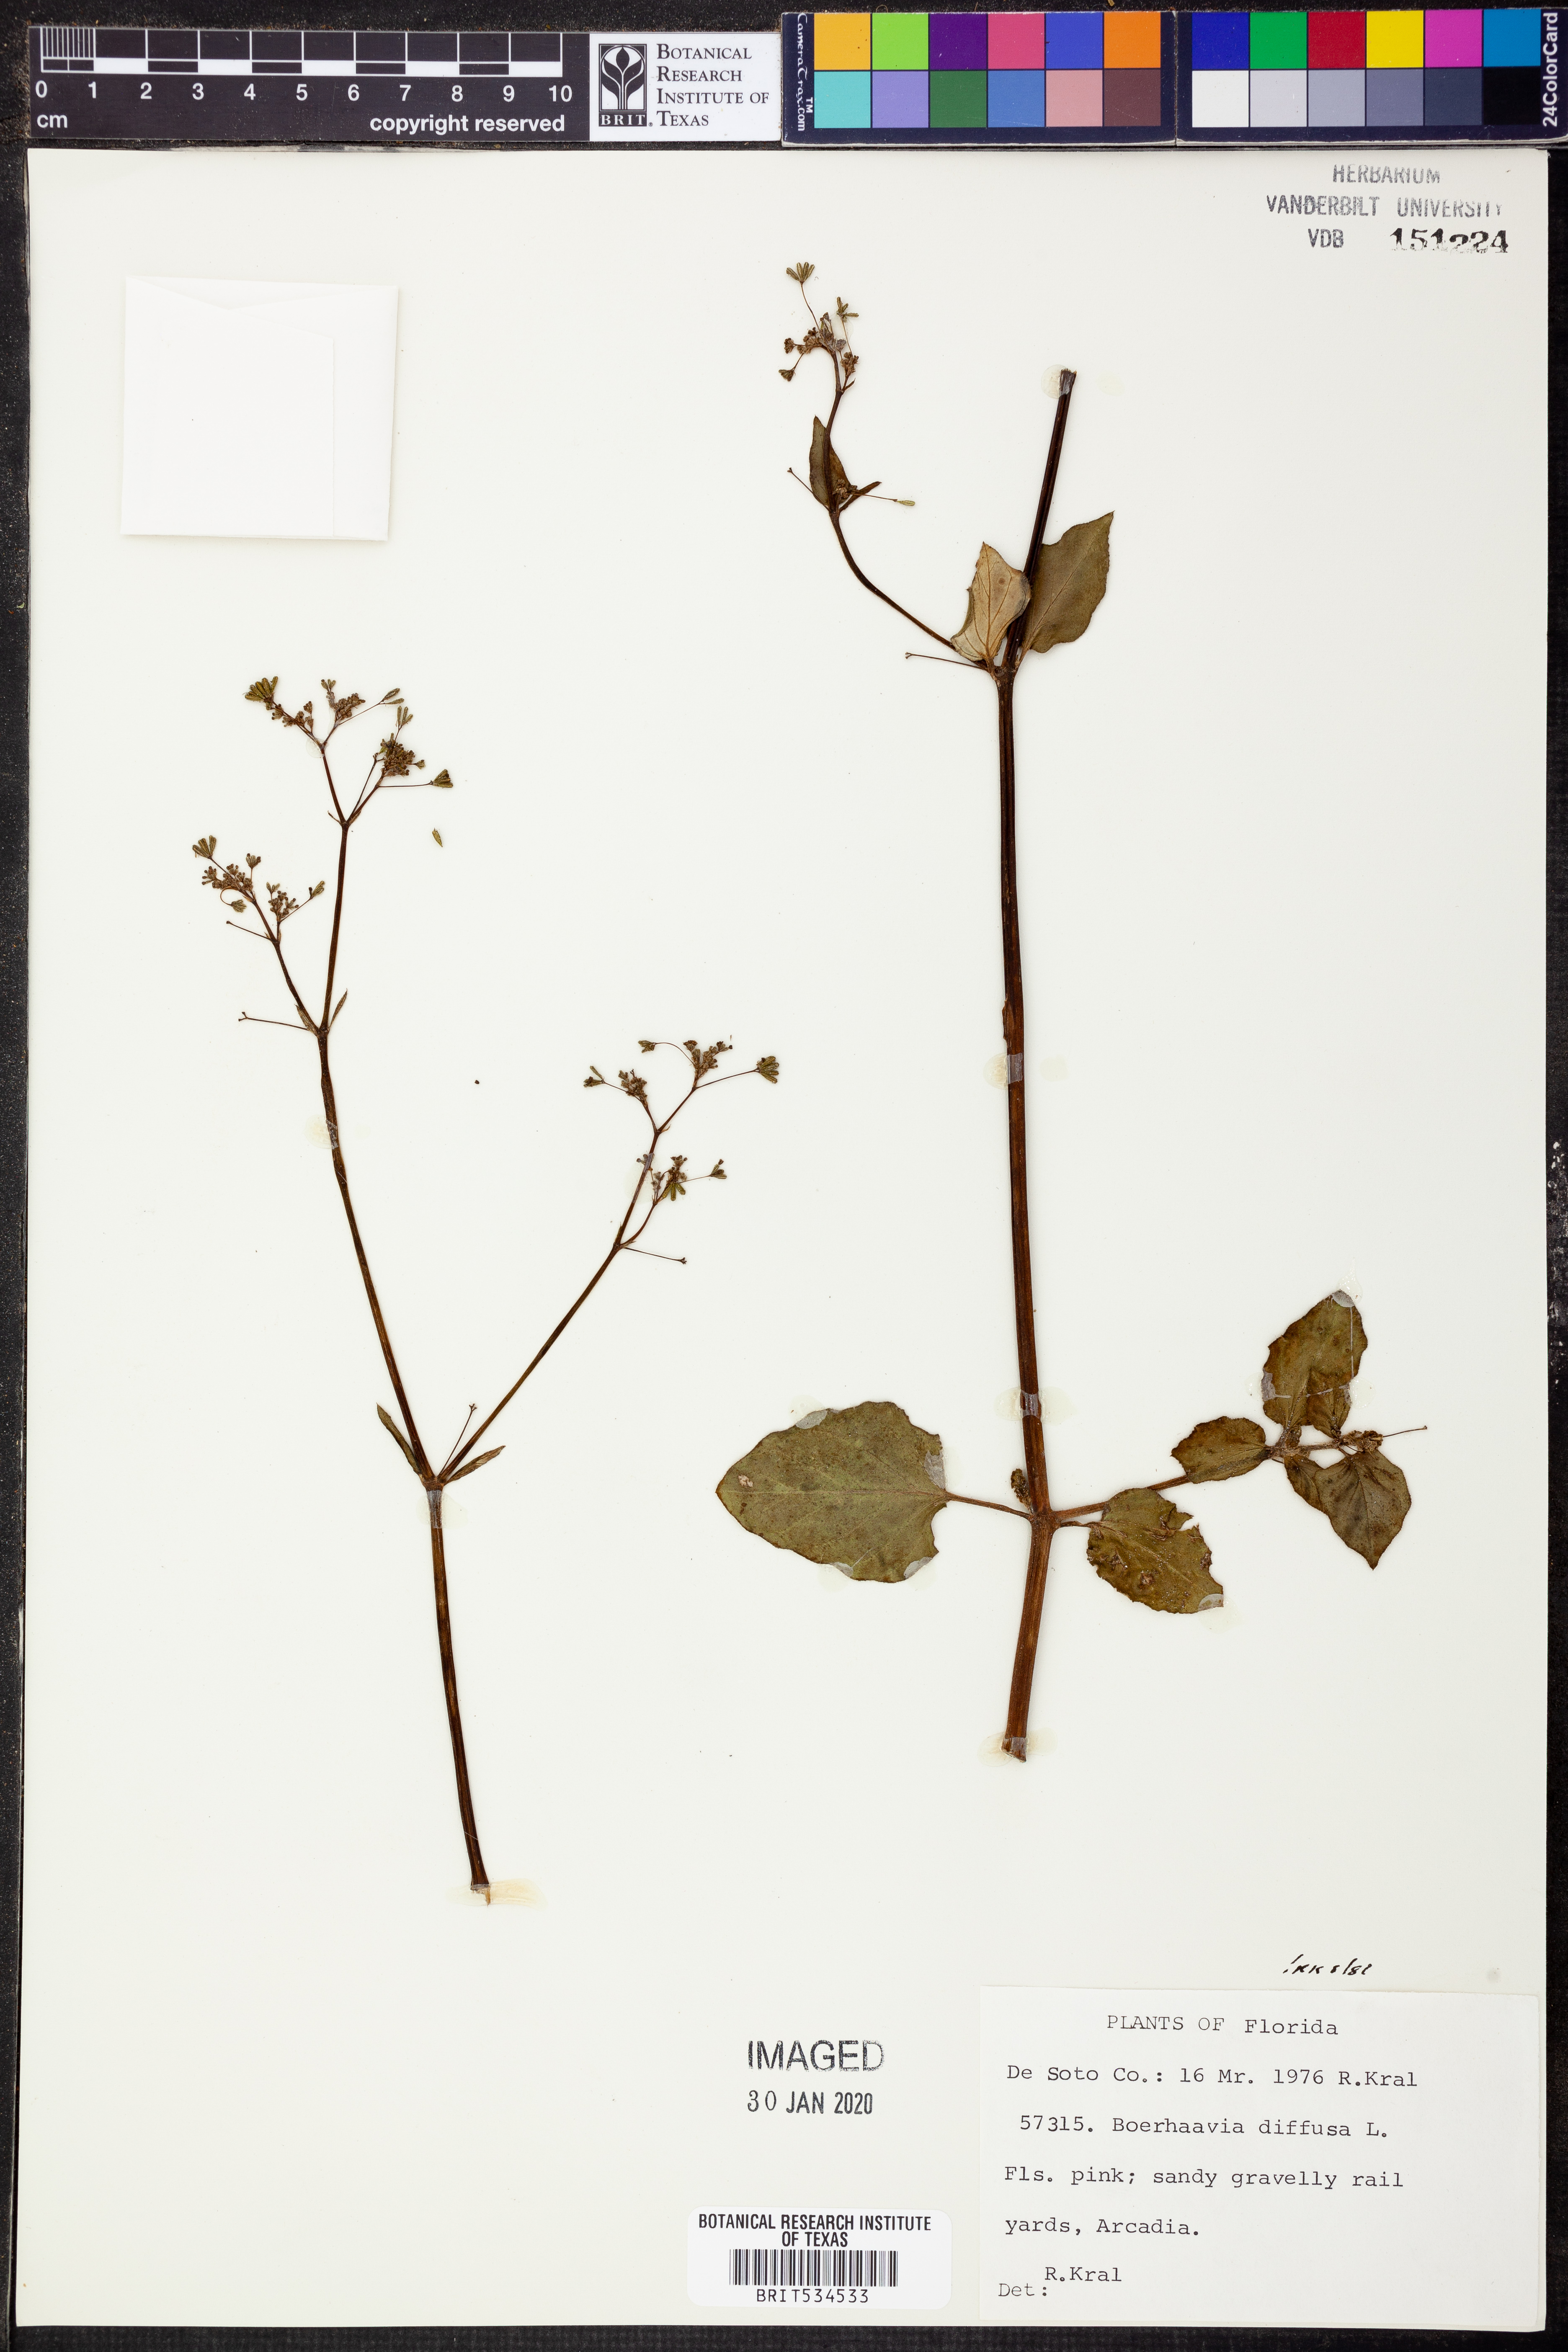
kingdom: Plantae
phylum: Tracheophyta
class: Magnoliopsida
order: Caryophyllales
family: Nyctaginaceae
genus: Boerhavia
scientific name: Boerhavia diffusa
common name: Red spiderling
